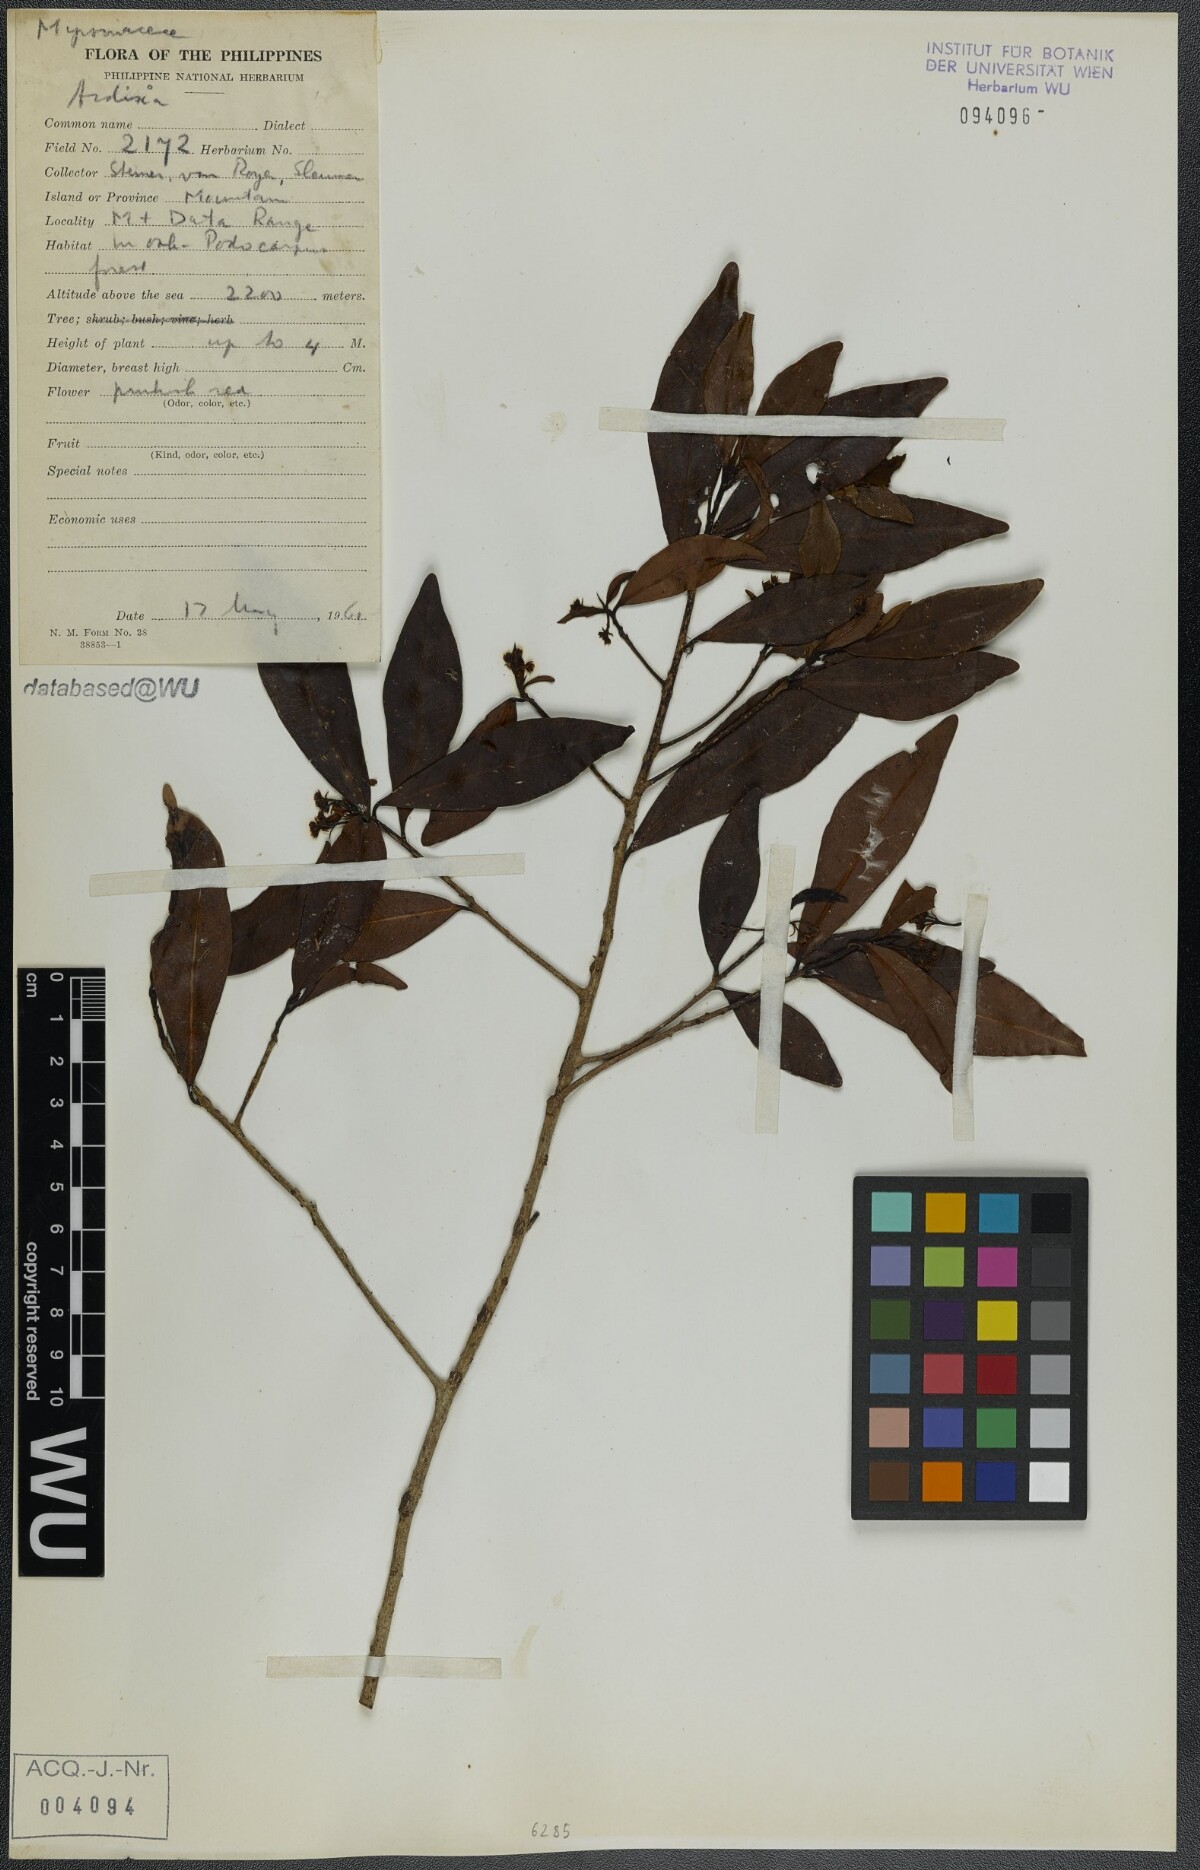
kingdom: Plantae
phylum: Tracheophyta
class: Magnoliopsida
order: Ericales
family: Primulaceae
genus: Ardisia
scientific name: Ardisia
